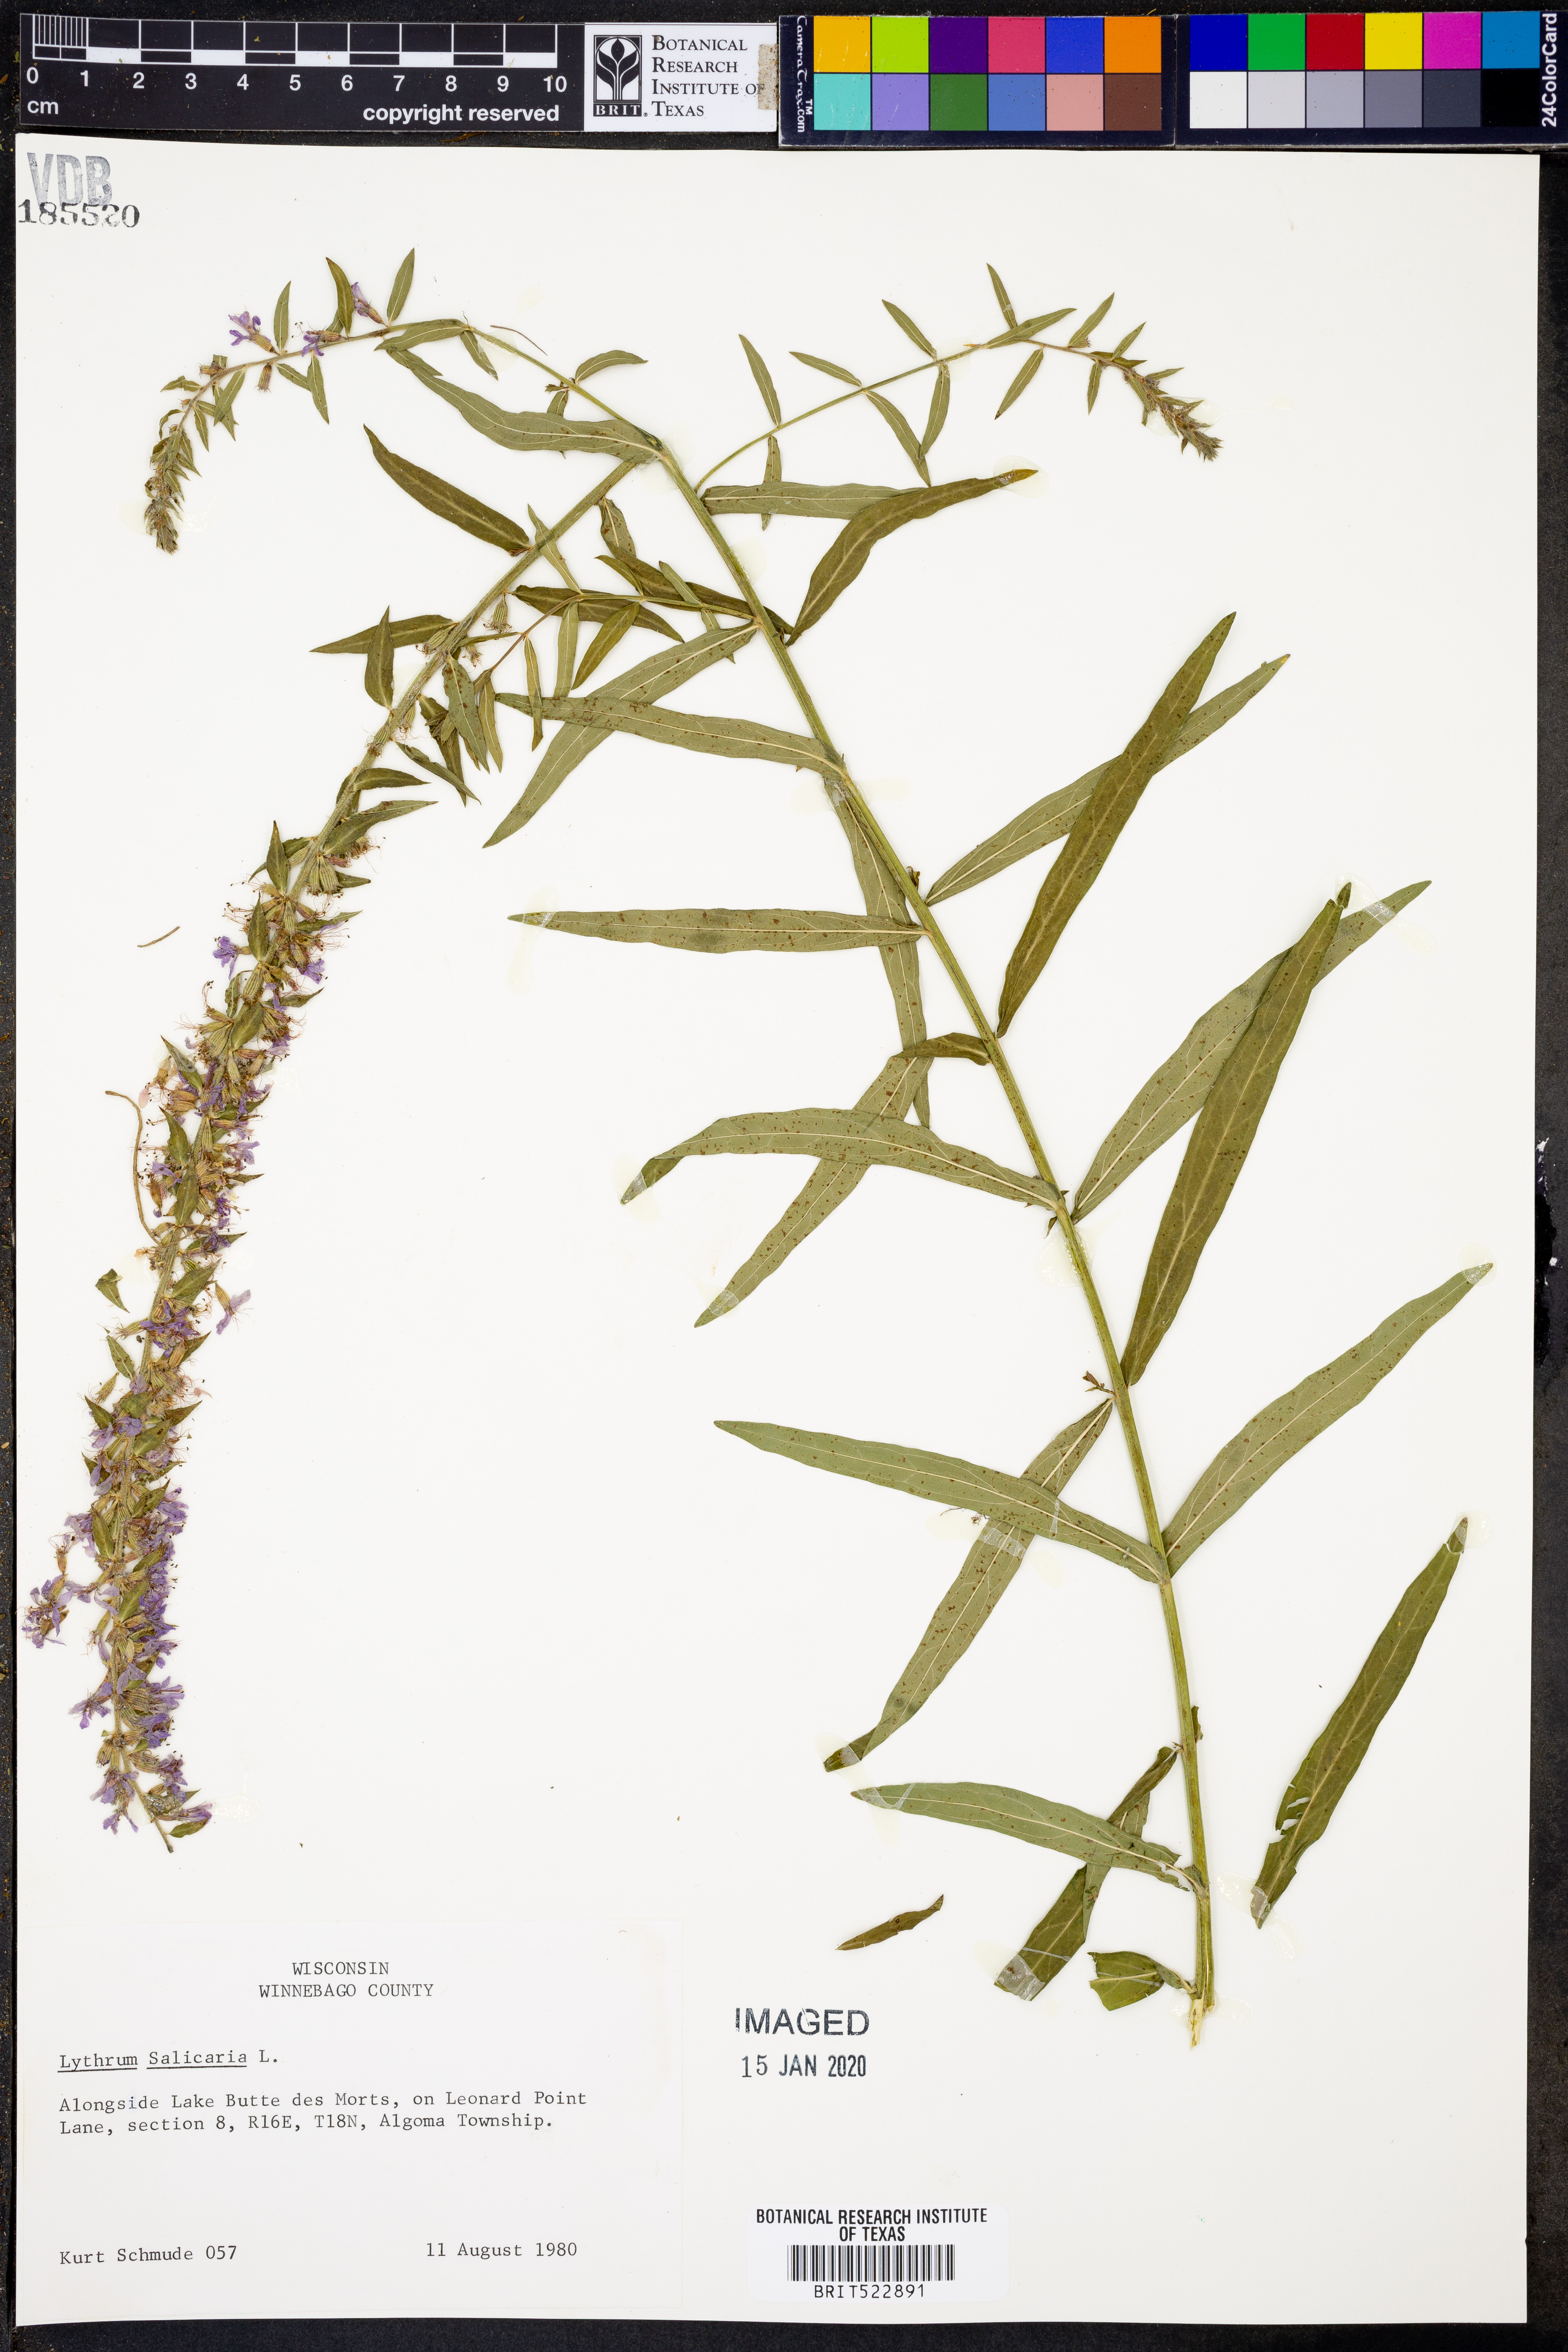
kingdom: Plantae
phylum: Tracheophyta
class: Magnoliopsida
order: Myrtales
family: Lythraceae
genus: Lythrum
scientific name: Lythrum salicaria
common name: Purple loosestrife
